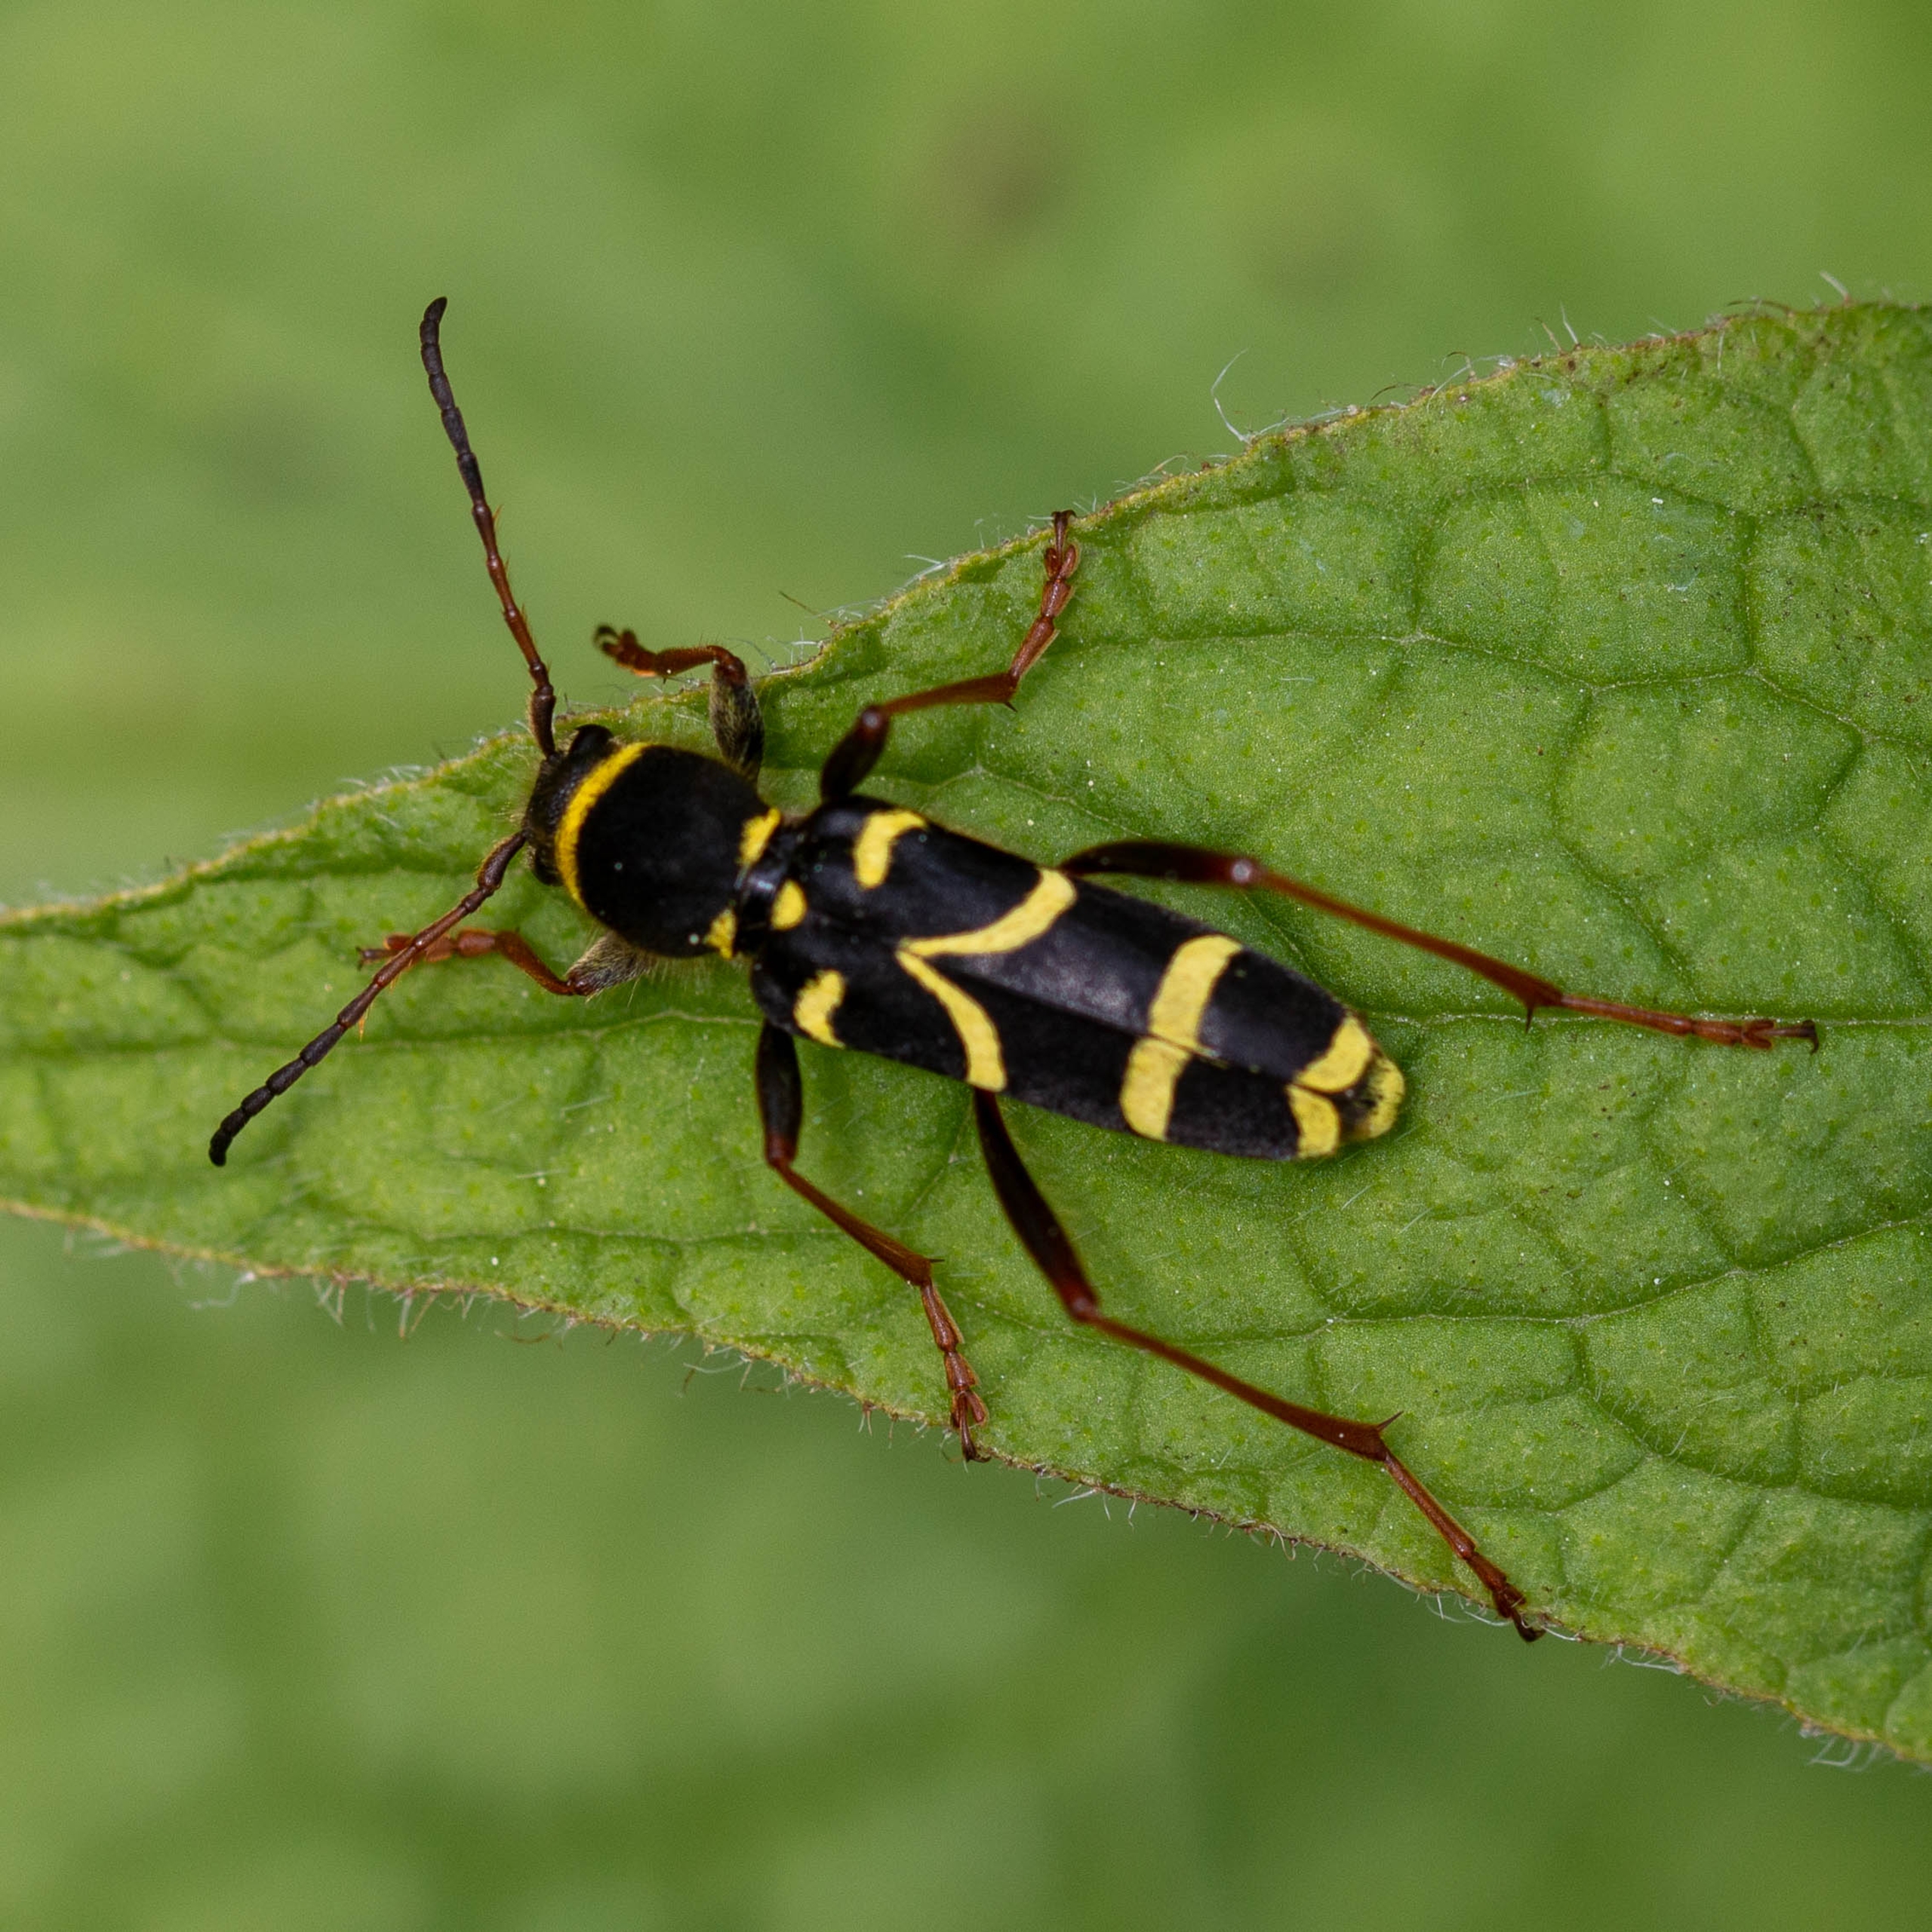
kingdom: Animalia
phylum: Arthropoda
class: Insecta
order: Coleoptera
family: Cerambycidae
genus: Clytus
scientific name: Clytus arietis
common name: Lille hvepsebuk
